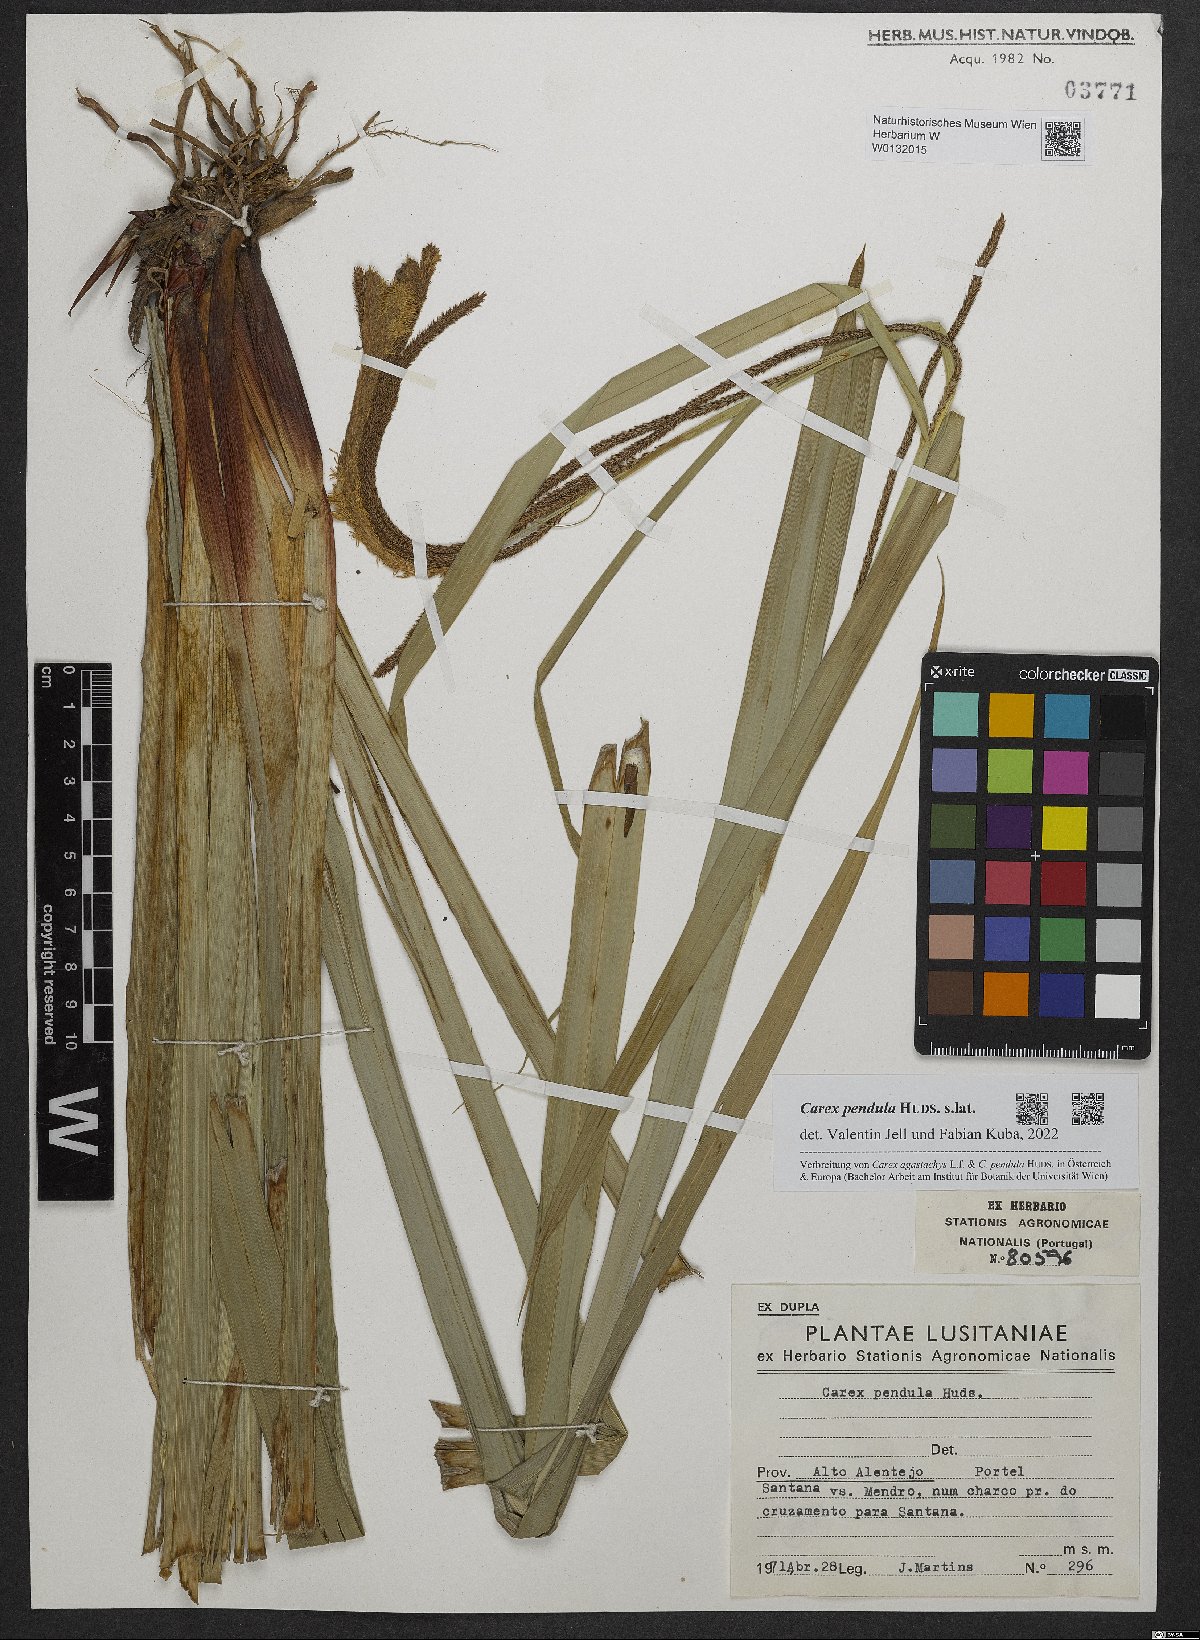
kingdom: Plantae
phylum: Tracheophyta
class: Liliopsida
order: Poales
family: Cyperaceae
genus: Carex
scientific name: Carex pendula
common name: Pendulous sedge
